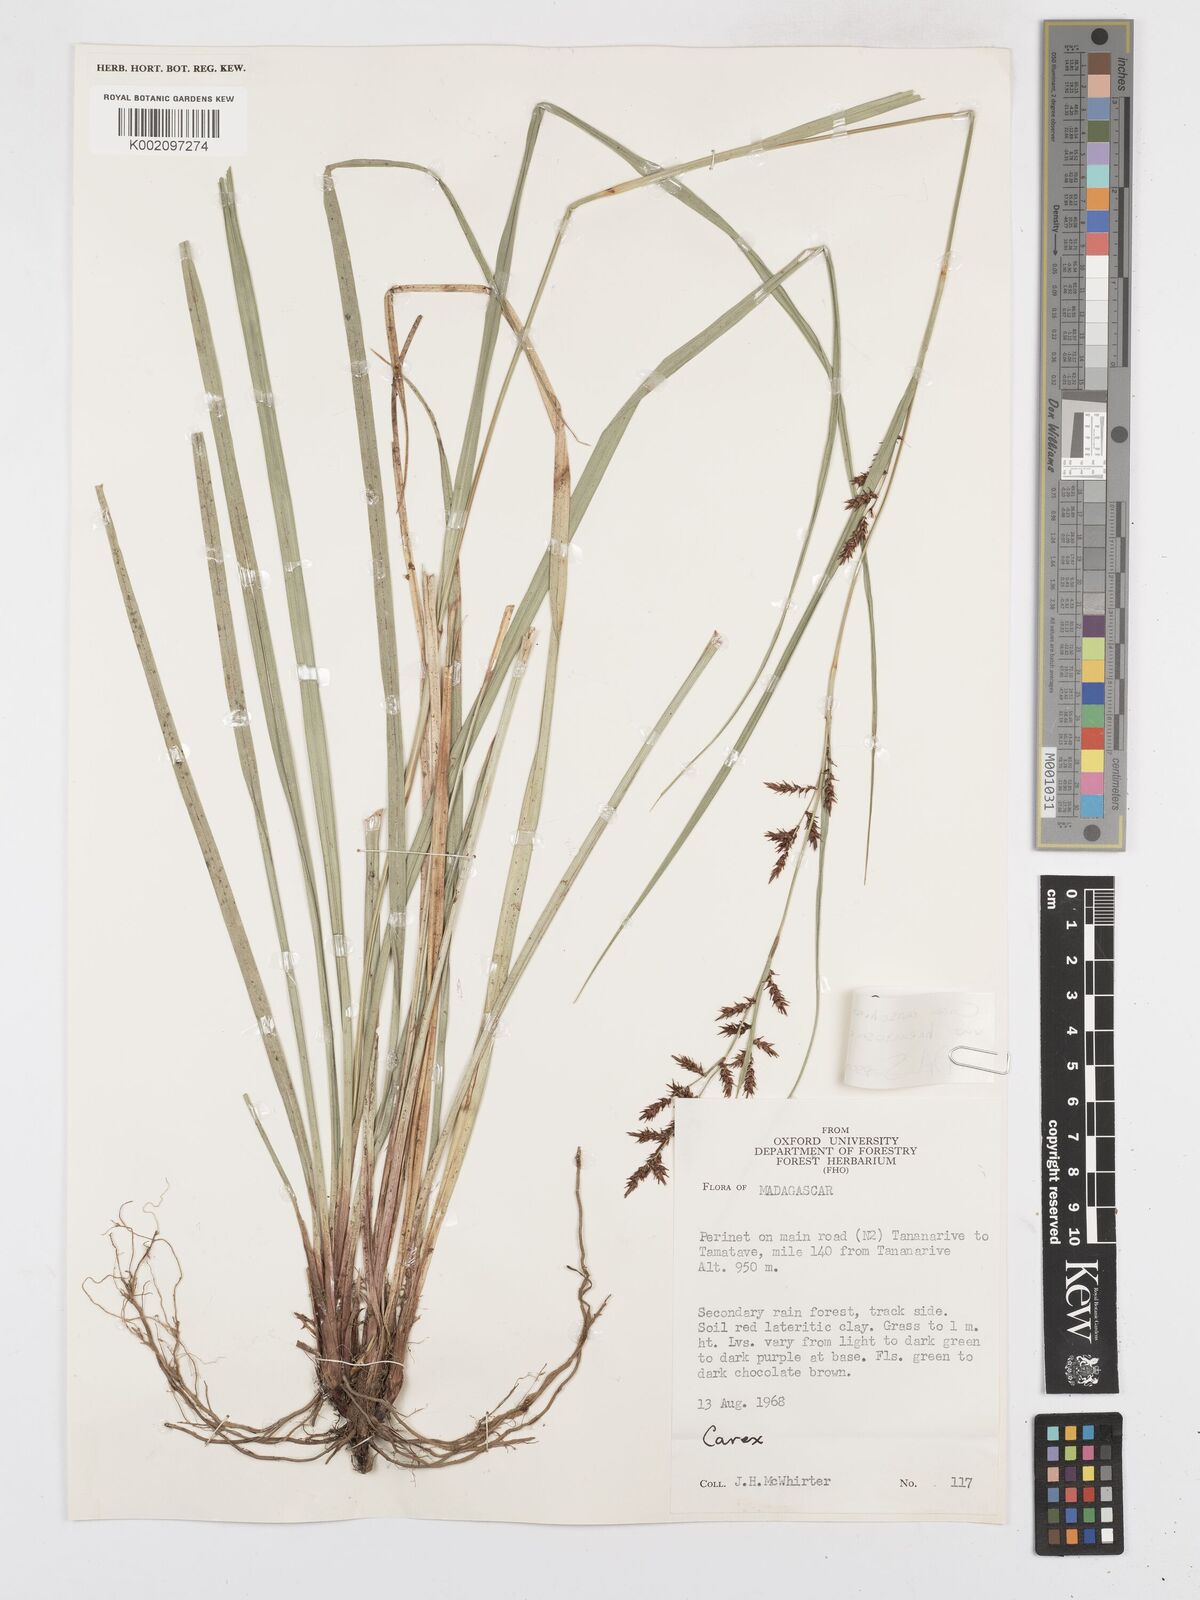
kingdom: Plantae
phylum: Tracheophyta
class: Liliopsida
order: Poales
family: Cyperaceae
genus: Carex
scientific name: Carex renschiana
